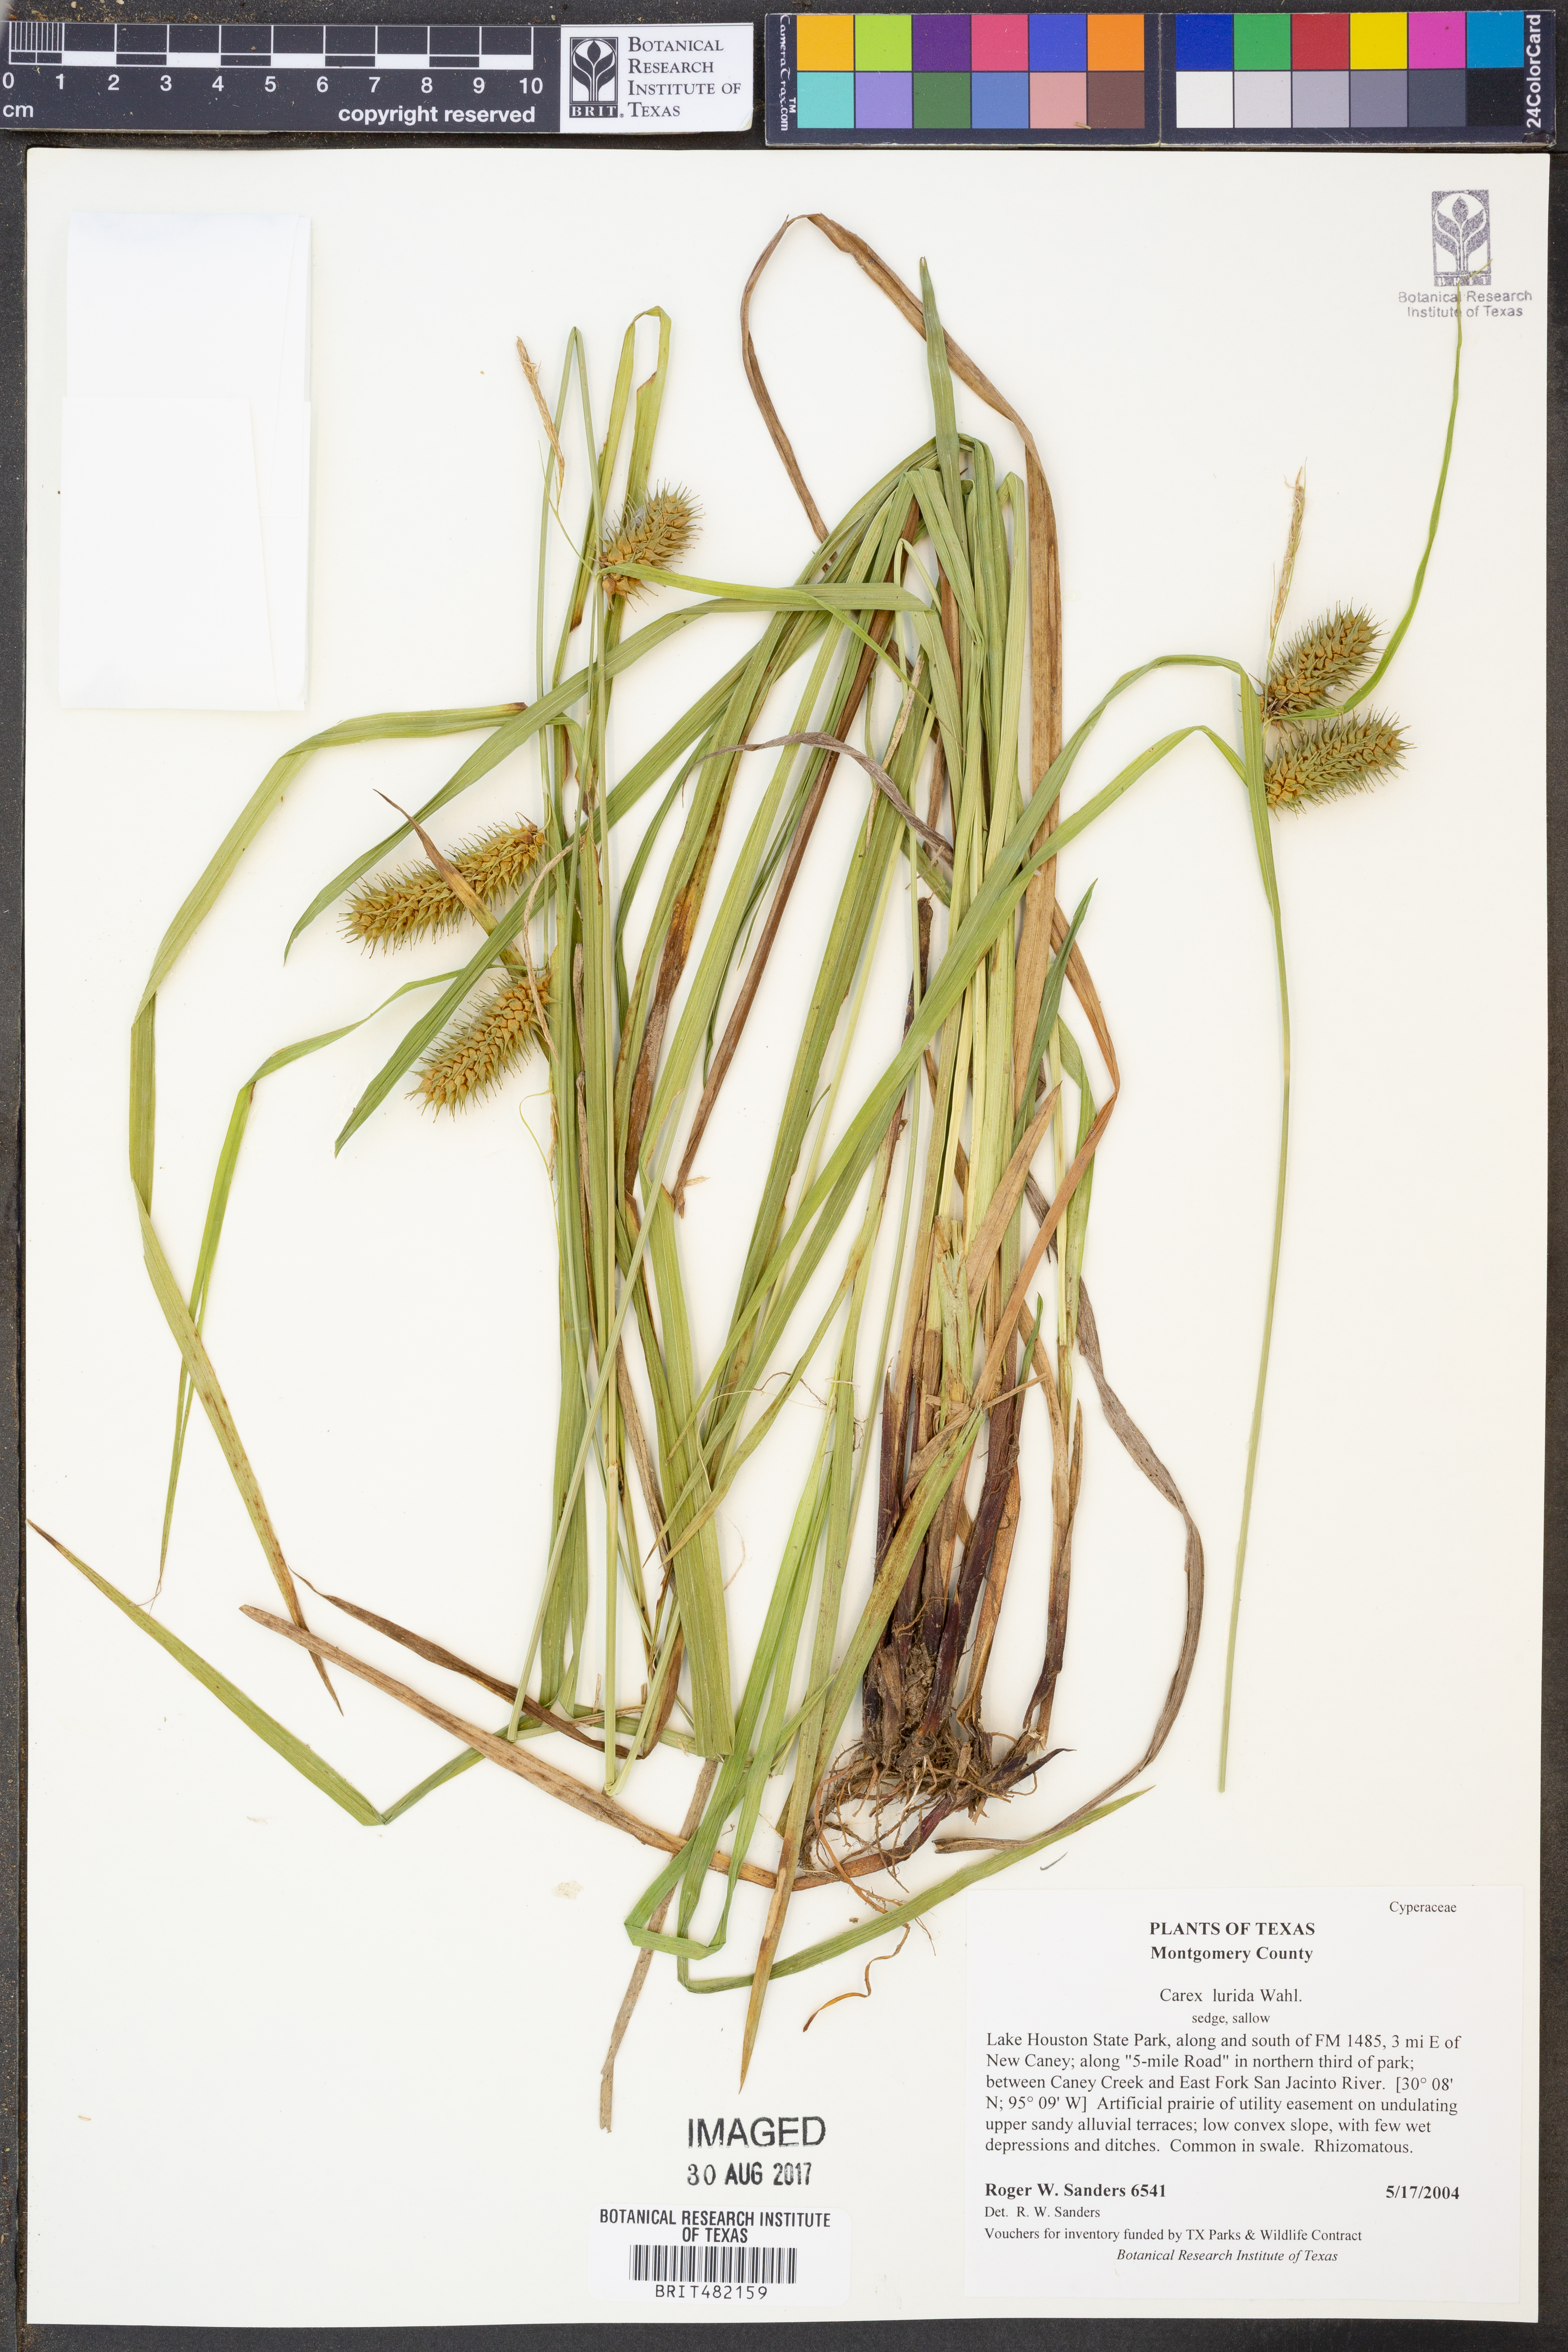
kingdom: Plantae
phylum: Tracheophyta
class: Liliopsida
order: Poales
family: Cyperaceae
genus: Carex
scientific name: Carex lurida
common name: Sallow sedge
